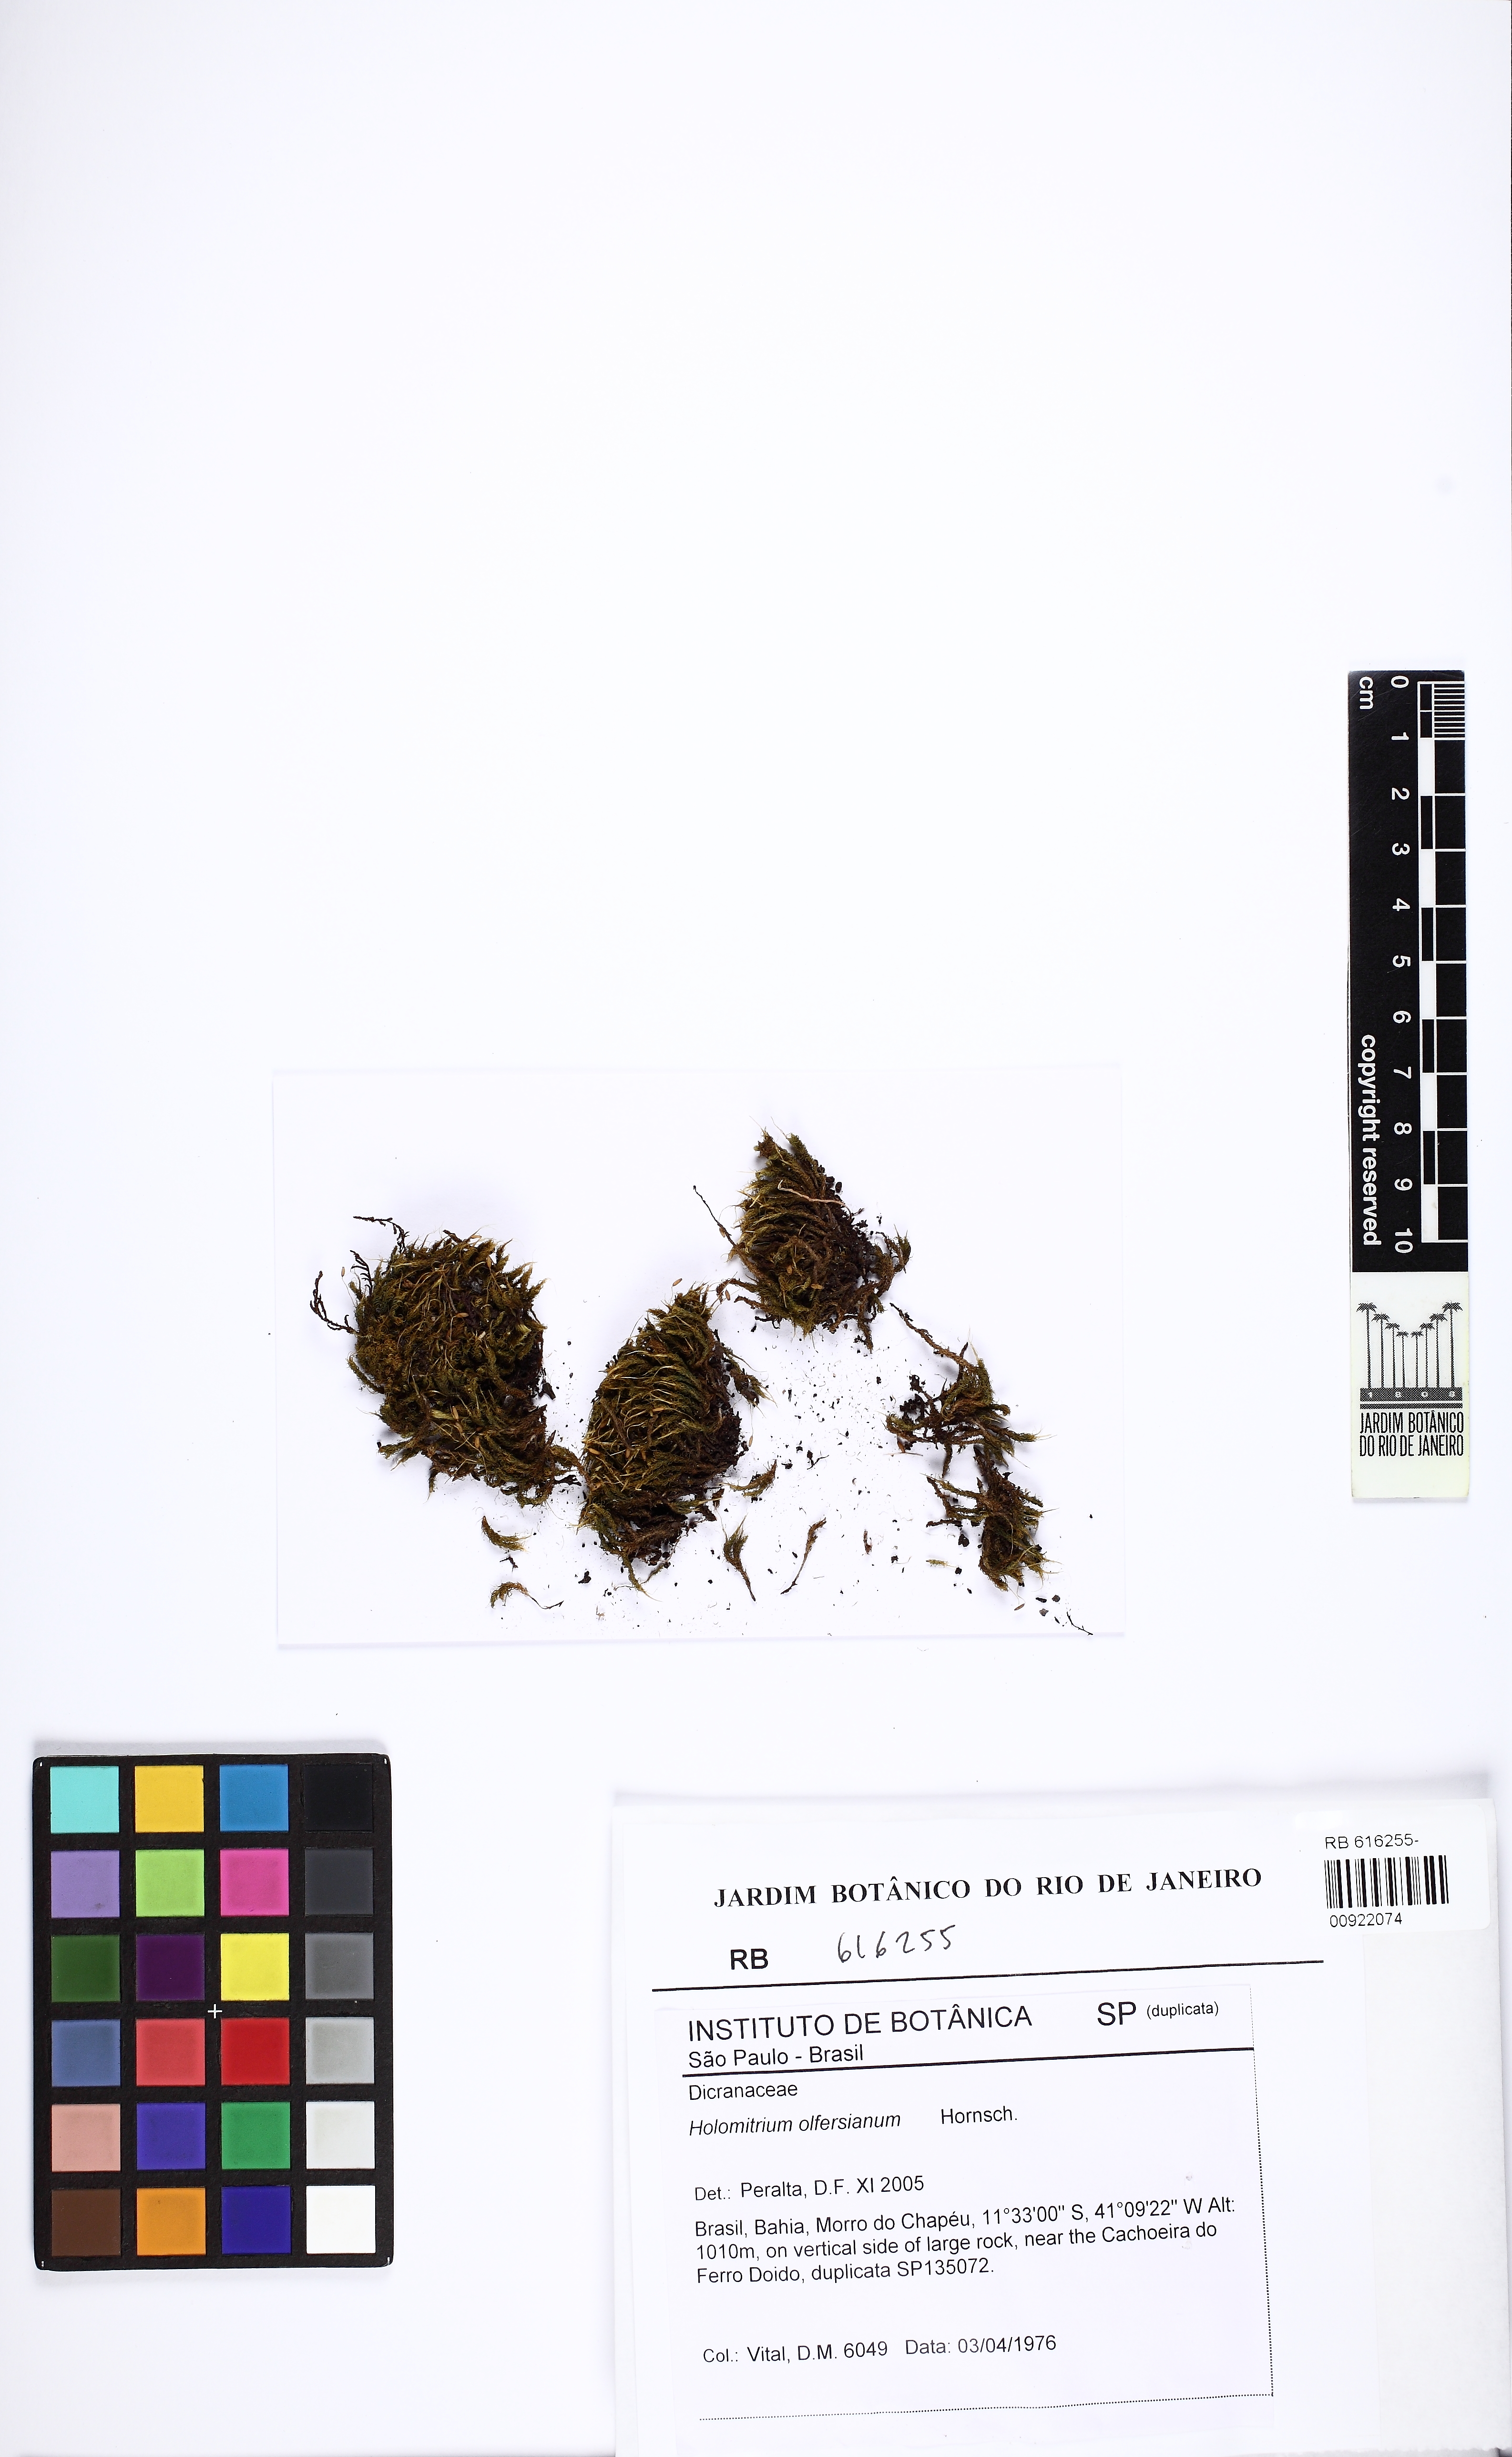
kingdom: Plantae
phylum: Bryophyta
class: Bryopsida
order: Dicranales
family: Dicranaceae
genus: Holomitrium
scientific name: Holomitrium olfersianum
